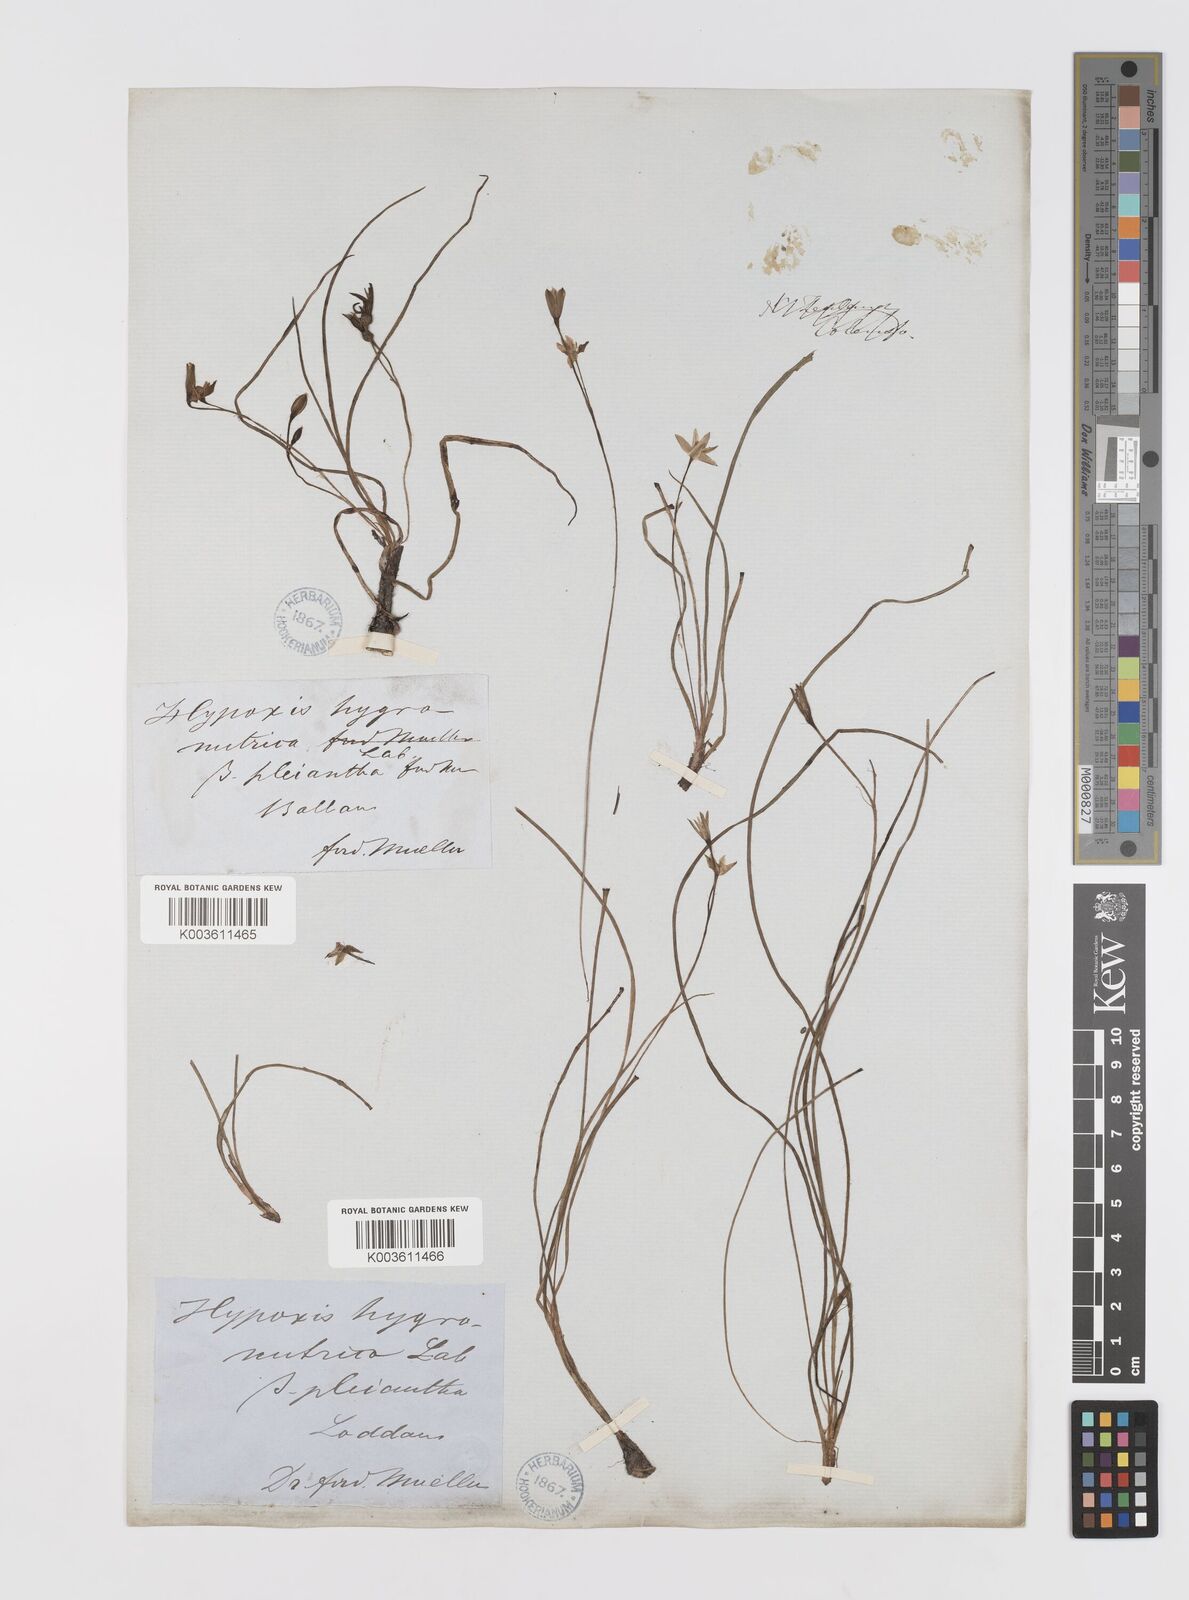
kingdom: Plantae
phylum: Tracheophyta
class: Liliopsida
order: Asparagales
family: Hypoxidaceae
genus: Hypoxis
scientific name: Hypoxis hygrometrica
